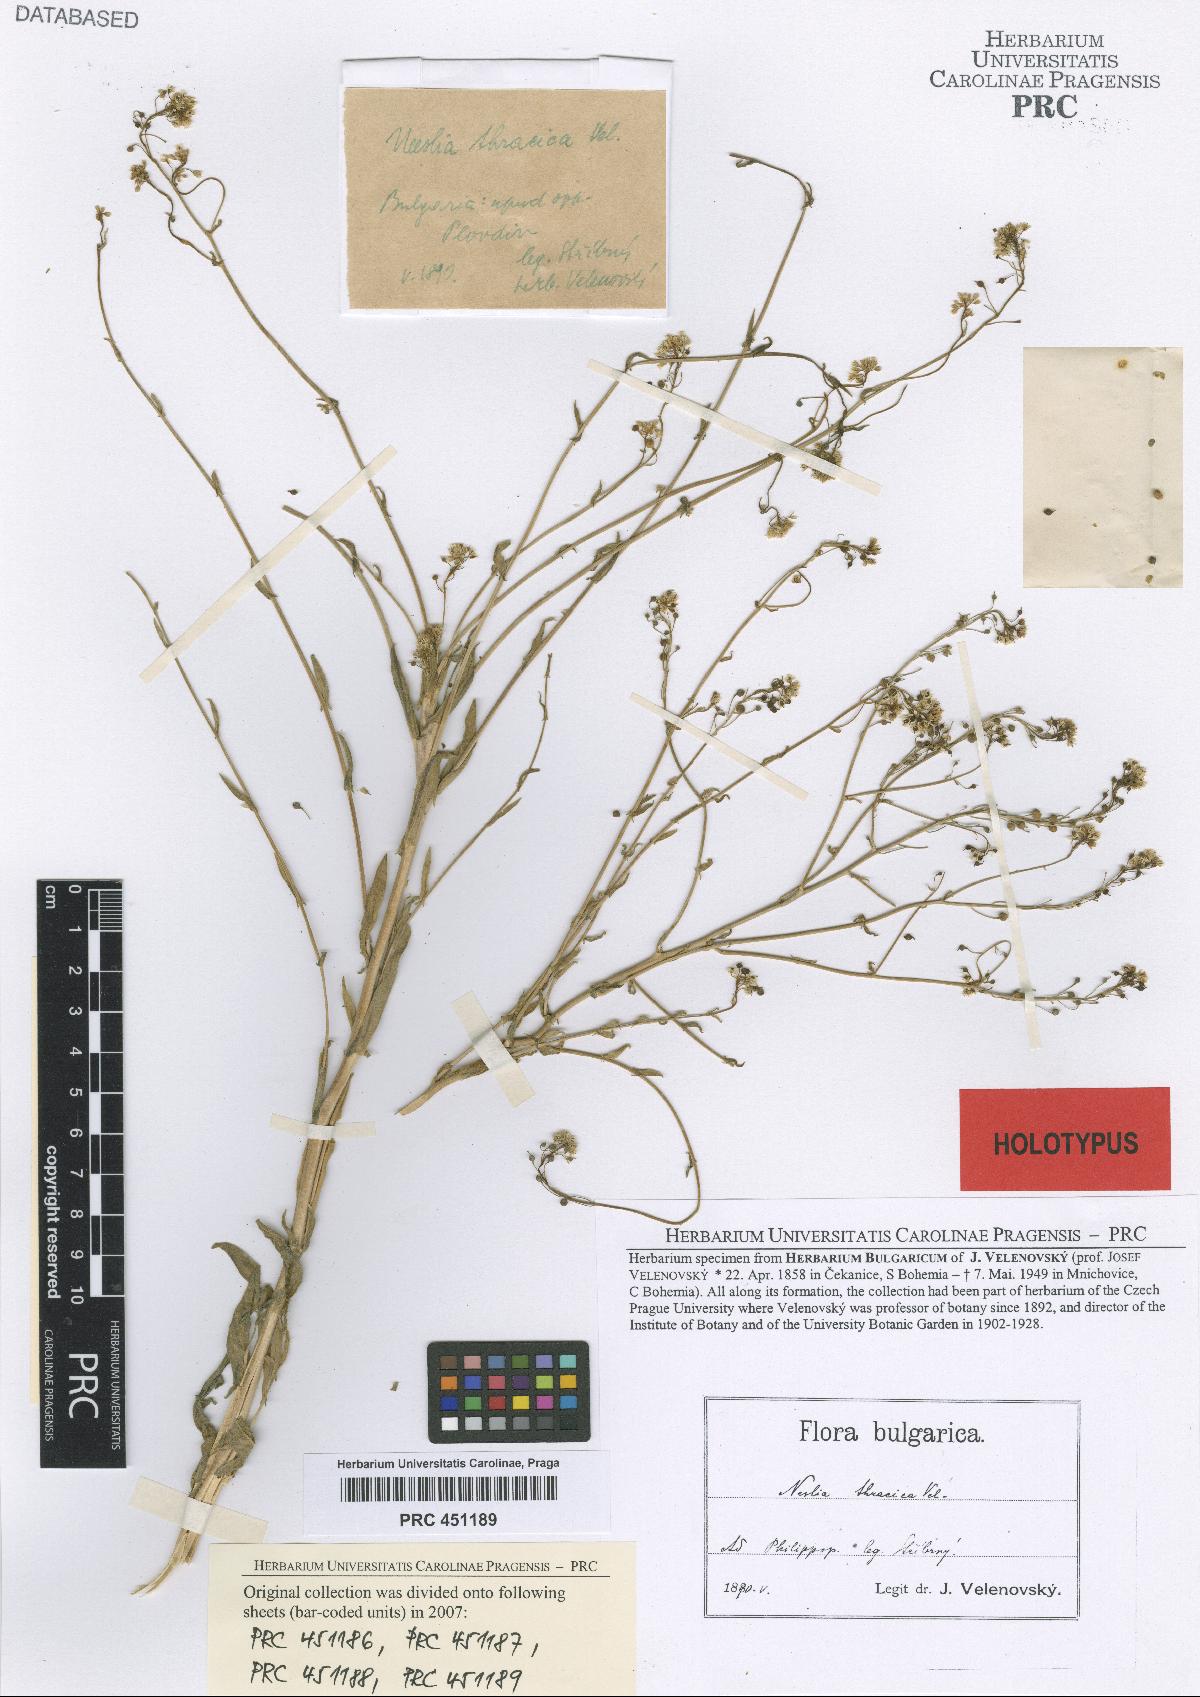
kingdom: Plantae
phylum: Tracheophyta
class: Magnoliopsida
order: Brassicales
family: Brassicaceae
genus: Neslia
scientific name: Neslia paniculata
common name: Ball mustard
